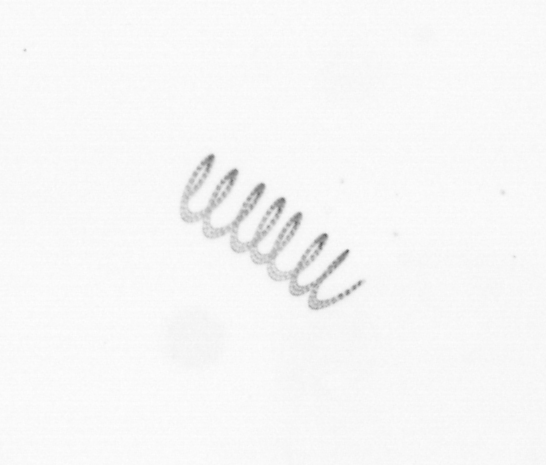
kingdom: Chromista
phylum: Ochrophyta
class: Bacillariophyceae
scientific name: Bacillariophyceae
